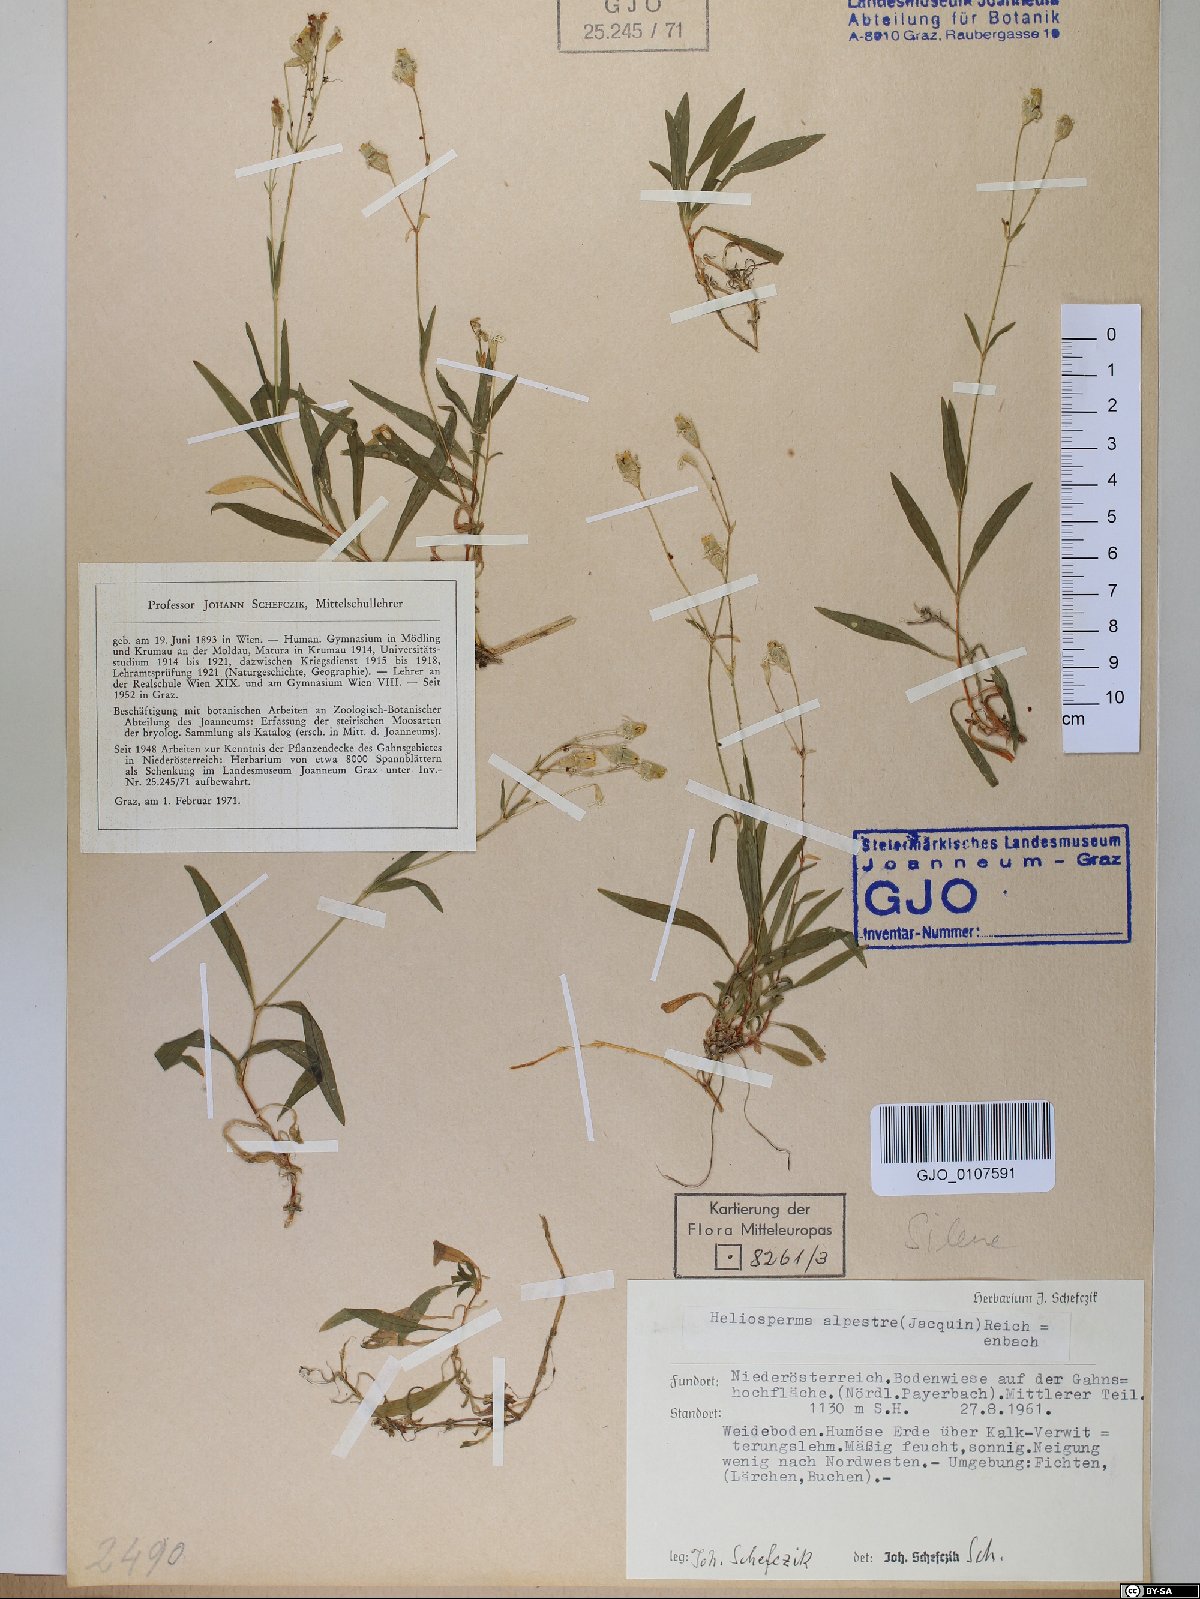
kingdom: Plantae
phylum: Tracheophyta
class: Magnoliopsida
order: Caryophyllales
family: Caryophyllaceae
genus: Heliosperma
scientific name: Heliosperma alpestre
